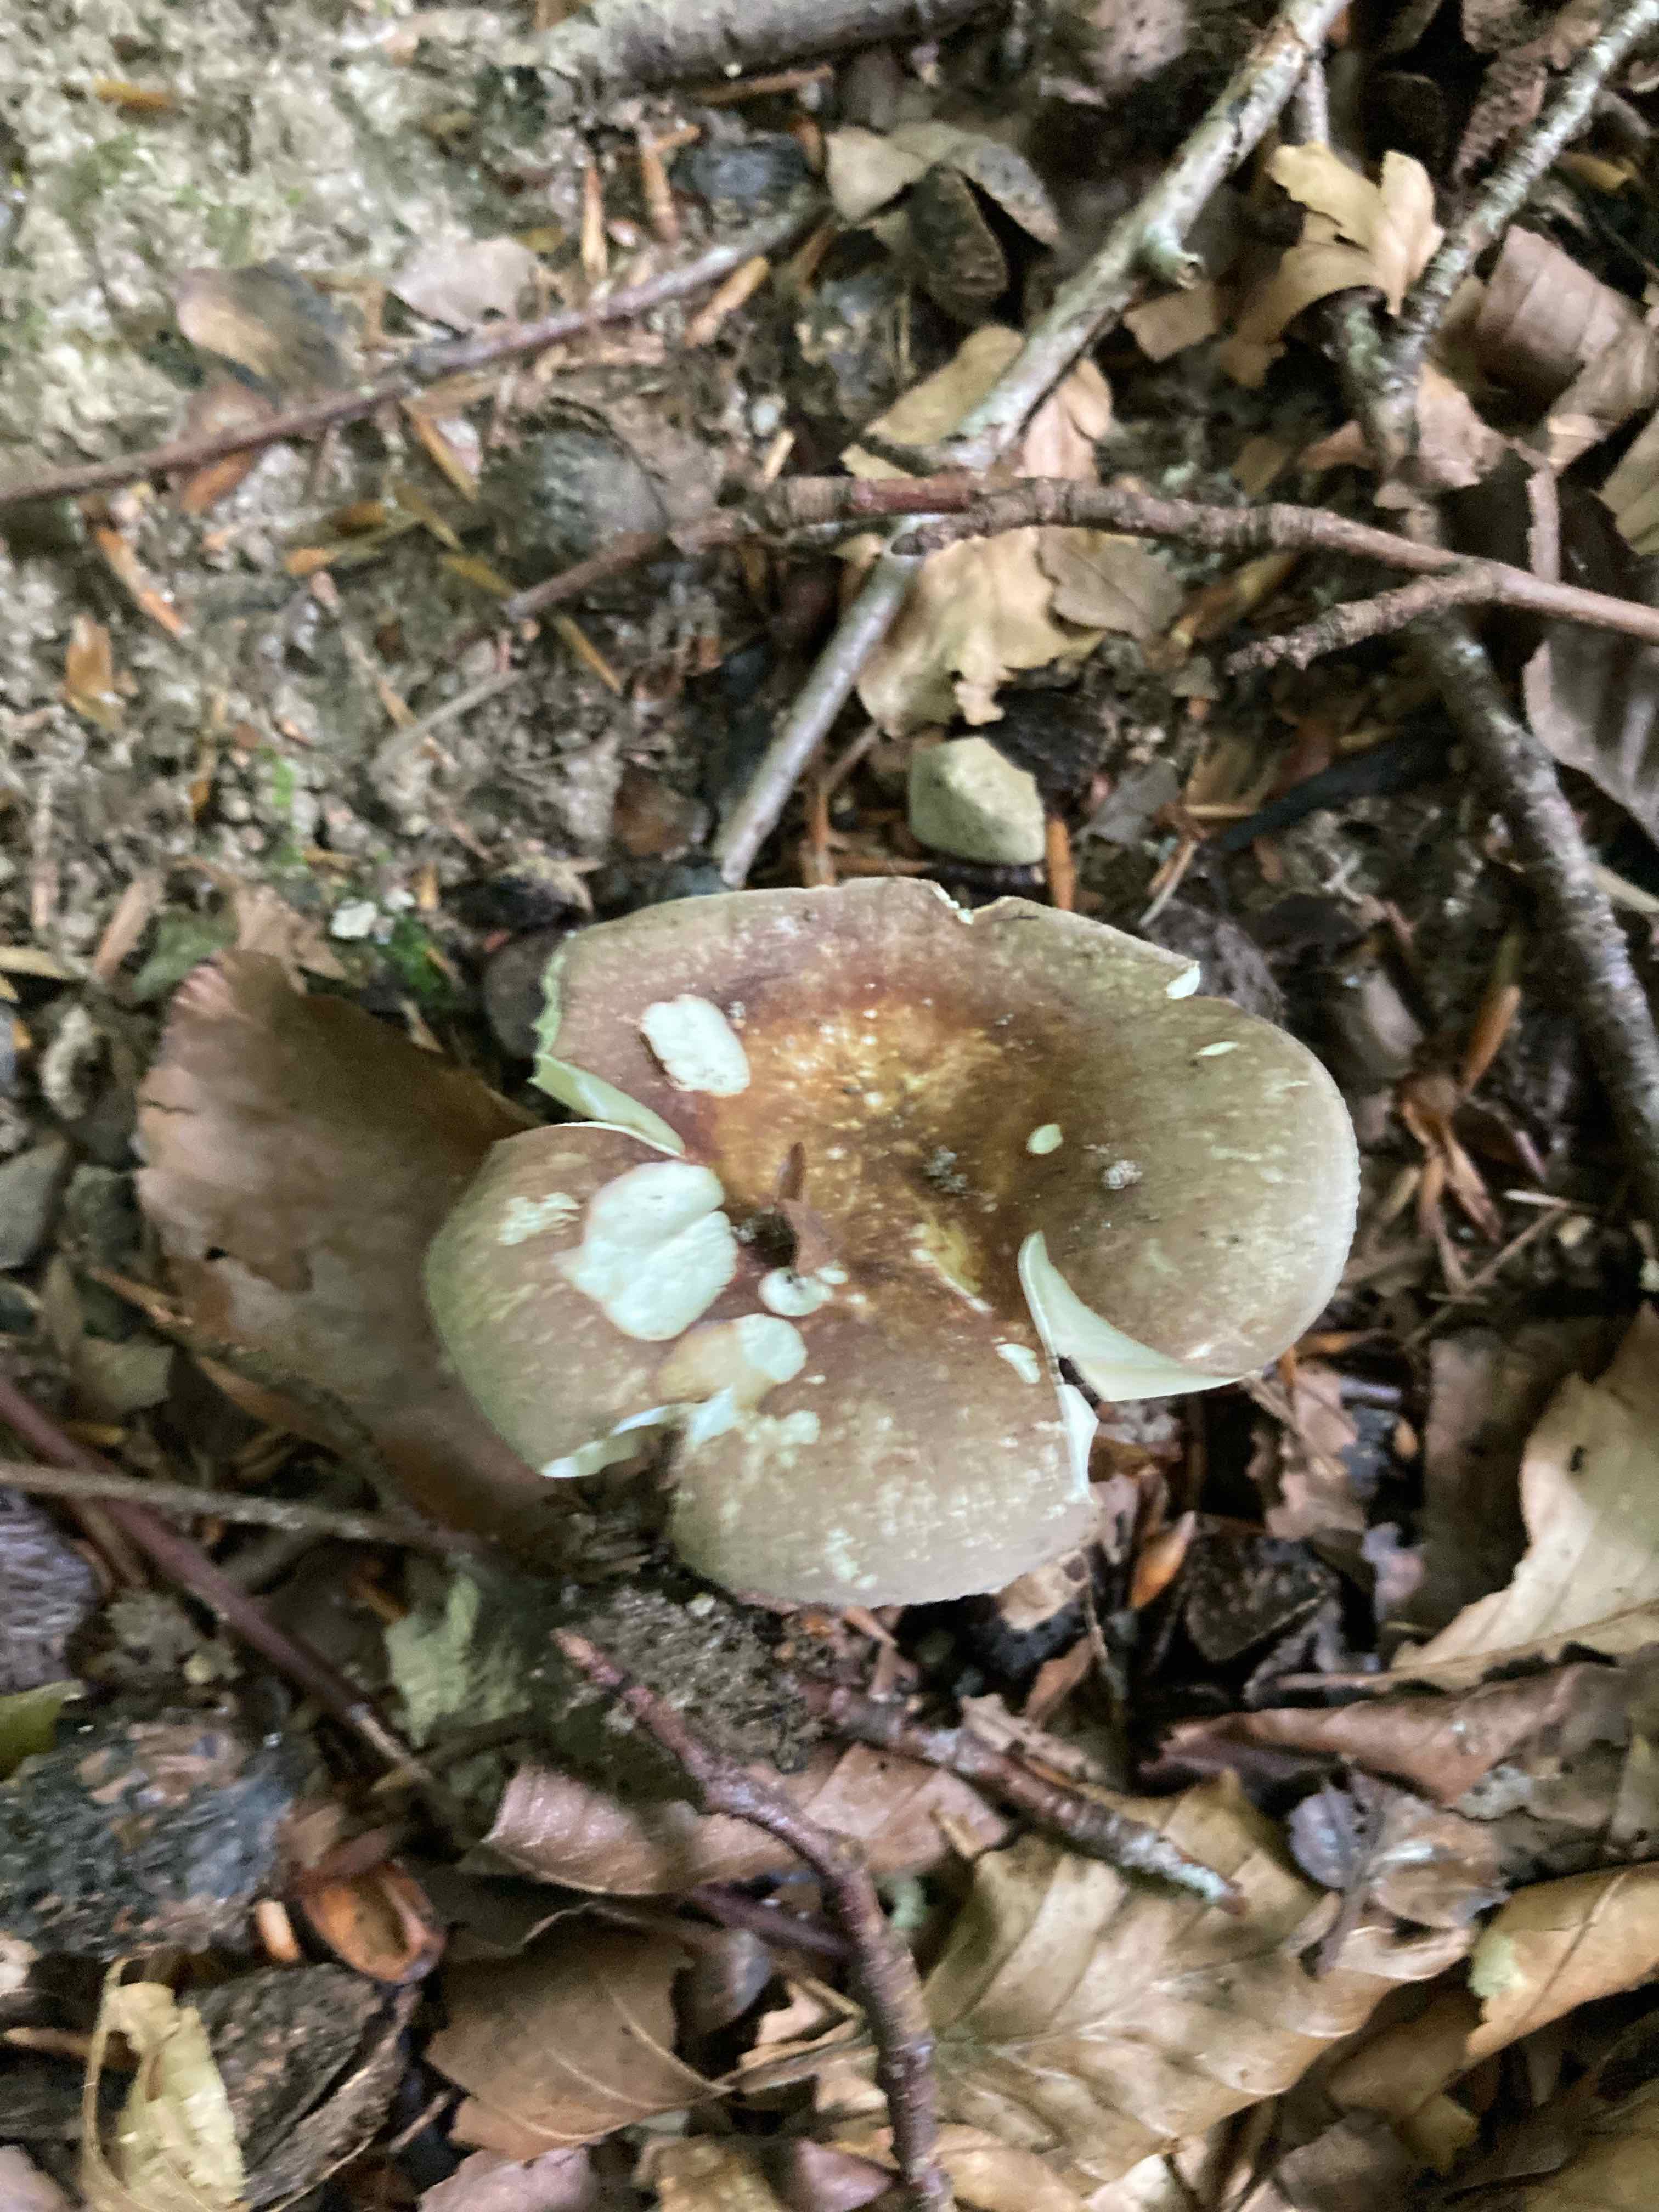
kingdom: Fungi
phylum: Basidiomycota
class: Agaricomycetes
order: Russulales
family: Russulaceae
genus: Russula
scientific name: Russula olivacea
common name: stor skørhat
